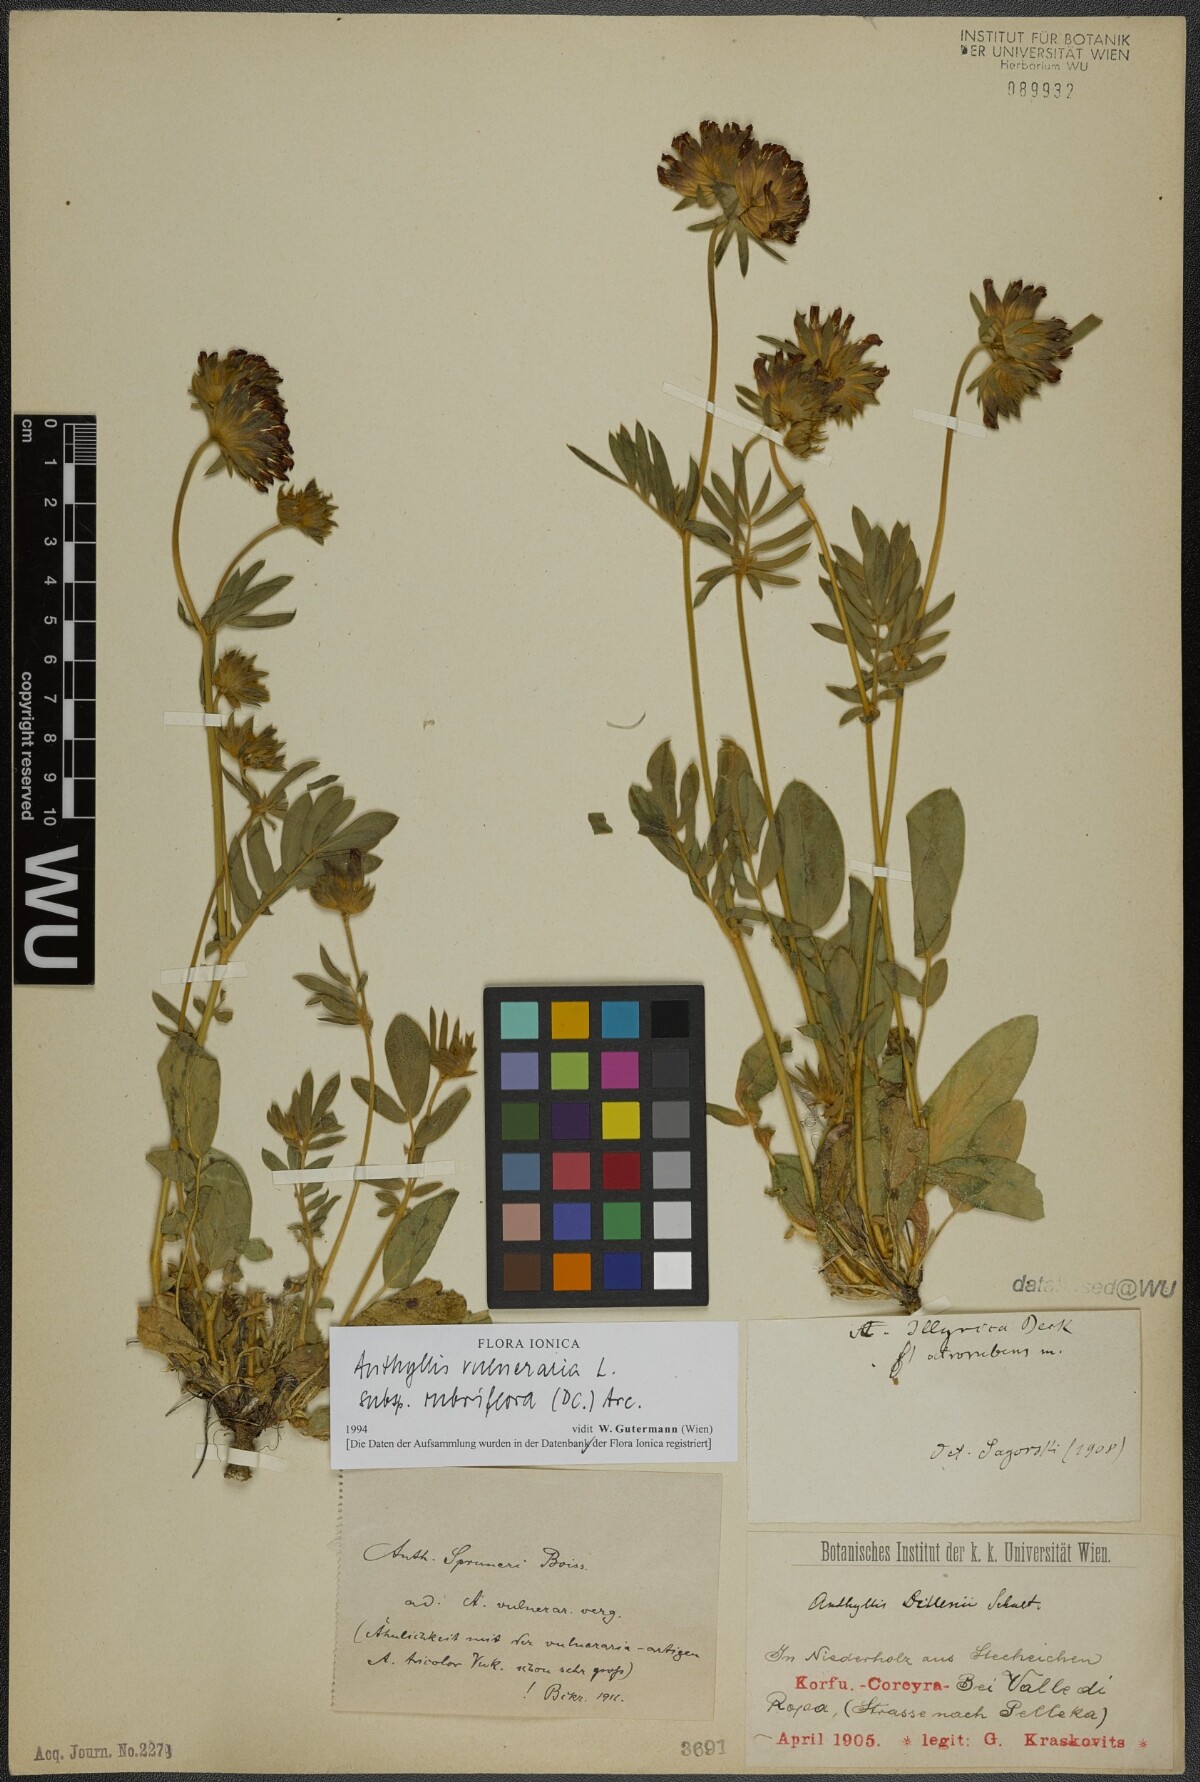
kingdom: Plantae
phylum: Tracheophyta
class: Magnoliopsida
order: Fabales
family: Fabaceae
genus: Anthyllis
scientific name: Anthyllis vulneraria
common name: Kidney vetch
